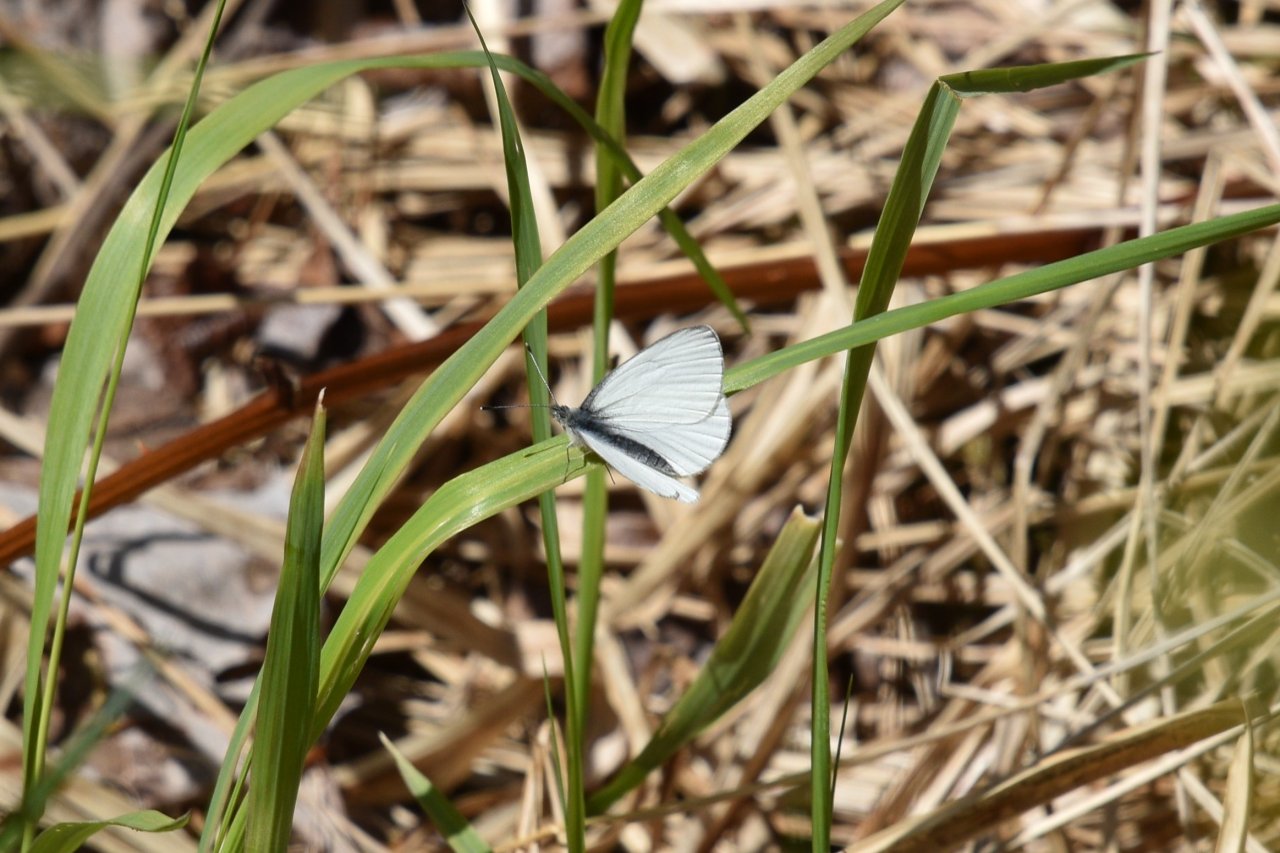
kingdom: Animalia
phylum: Arthropoda
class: Insecta
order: Lepidoptera
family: Pieridae
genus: Pieris
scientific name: Pieris oleracea
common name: Mustard White
